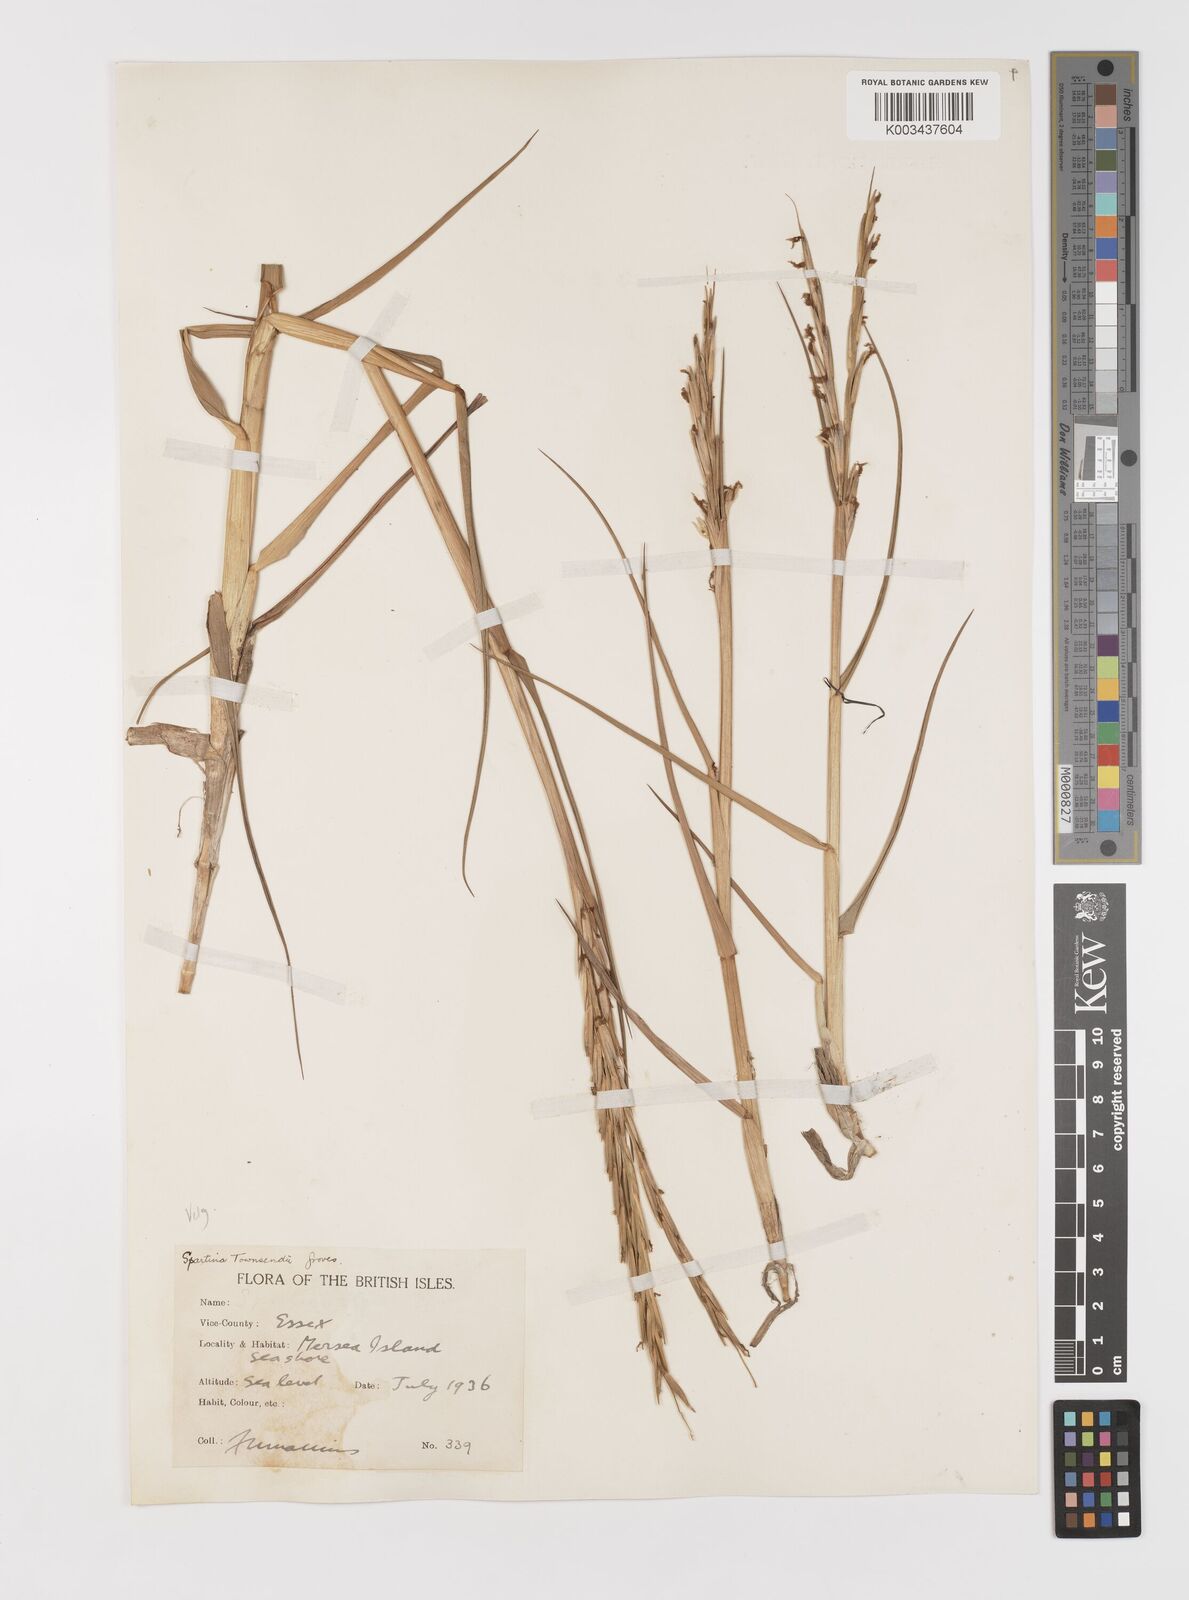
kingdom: Plantae
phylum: Tracheophyta
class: Liliopsida
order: Poales
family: Poaceae
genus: Sporobolus
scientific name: Sporobolus anglicus
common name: English cordgrass
